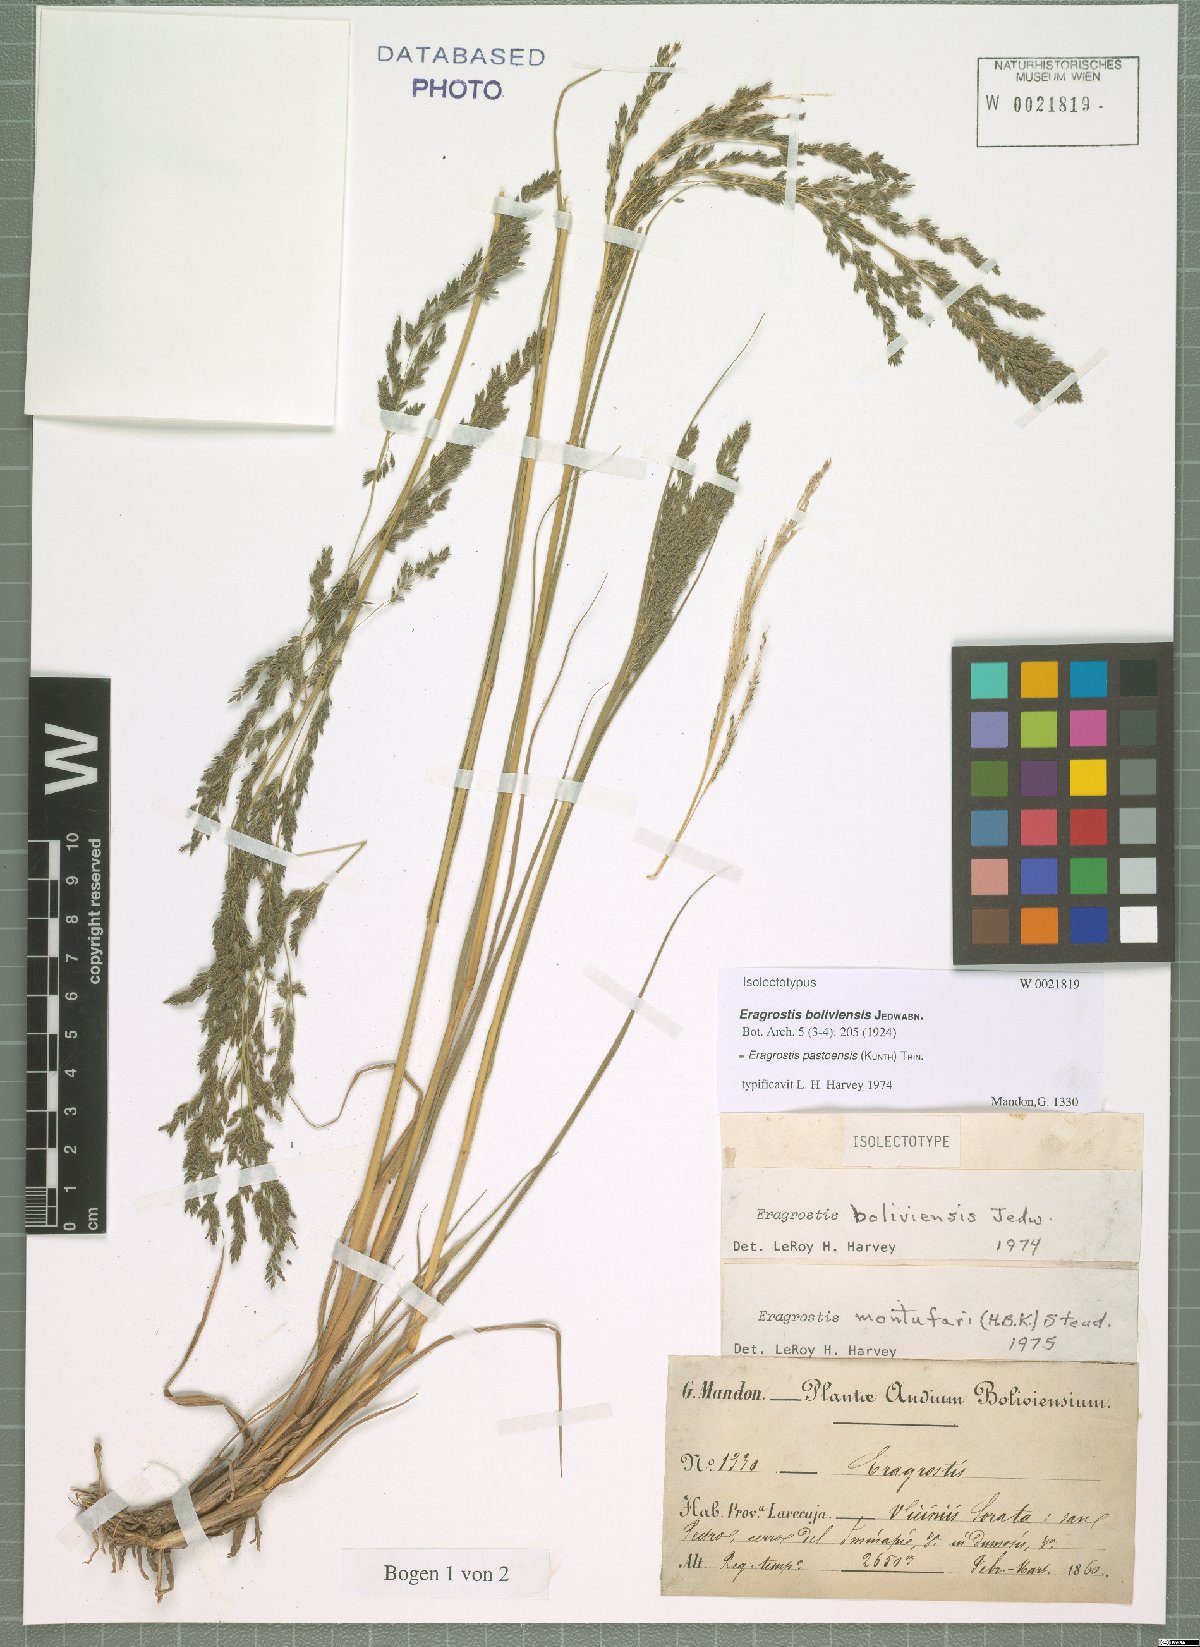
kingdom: Plantae
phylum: Tracheophyta
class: Liliopsida
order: Poales
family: Poaceae
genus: Eragrostis
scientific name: Eragrostis pastoensis
